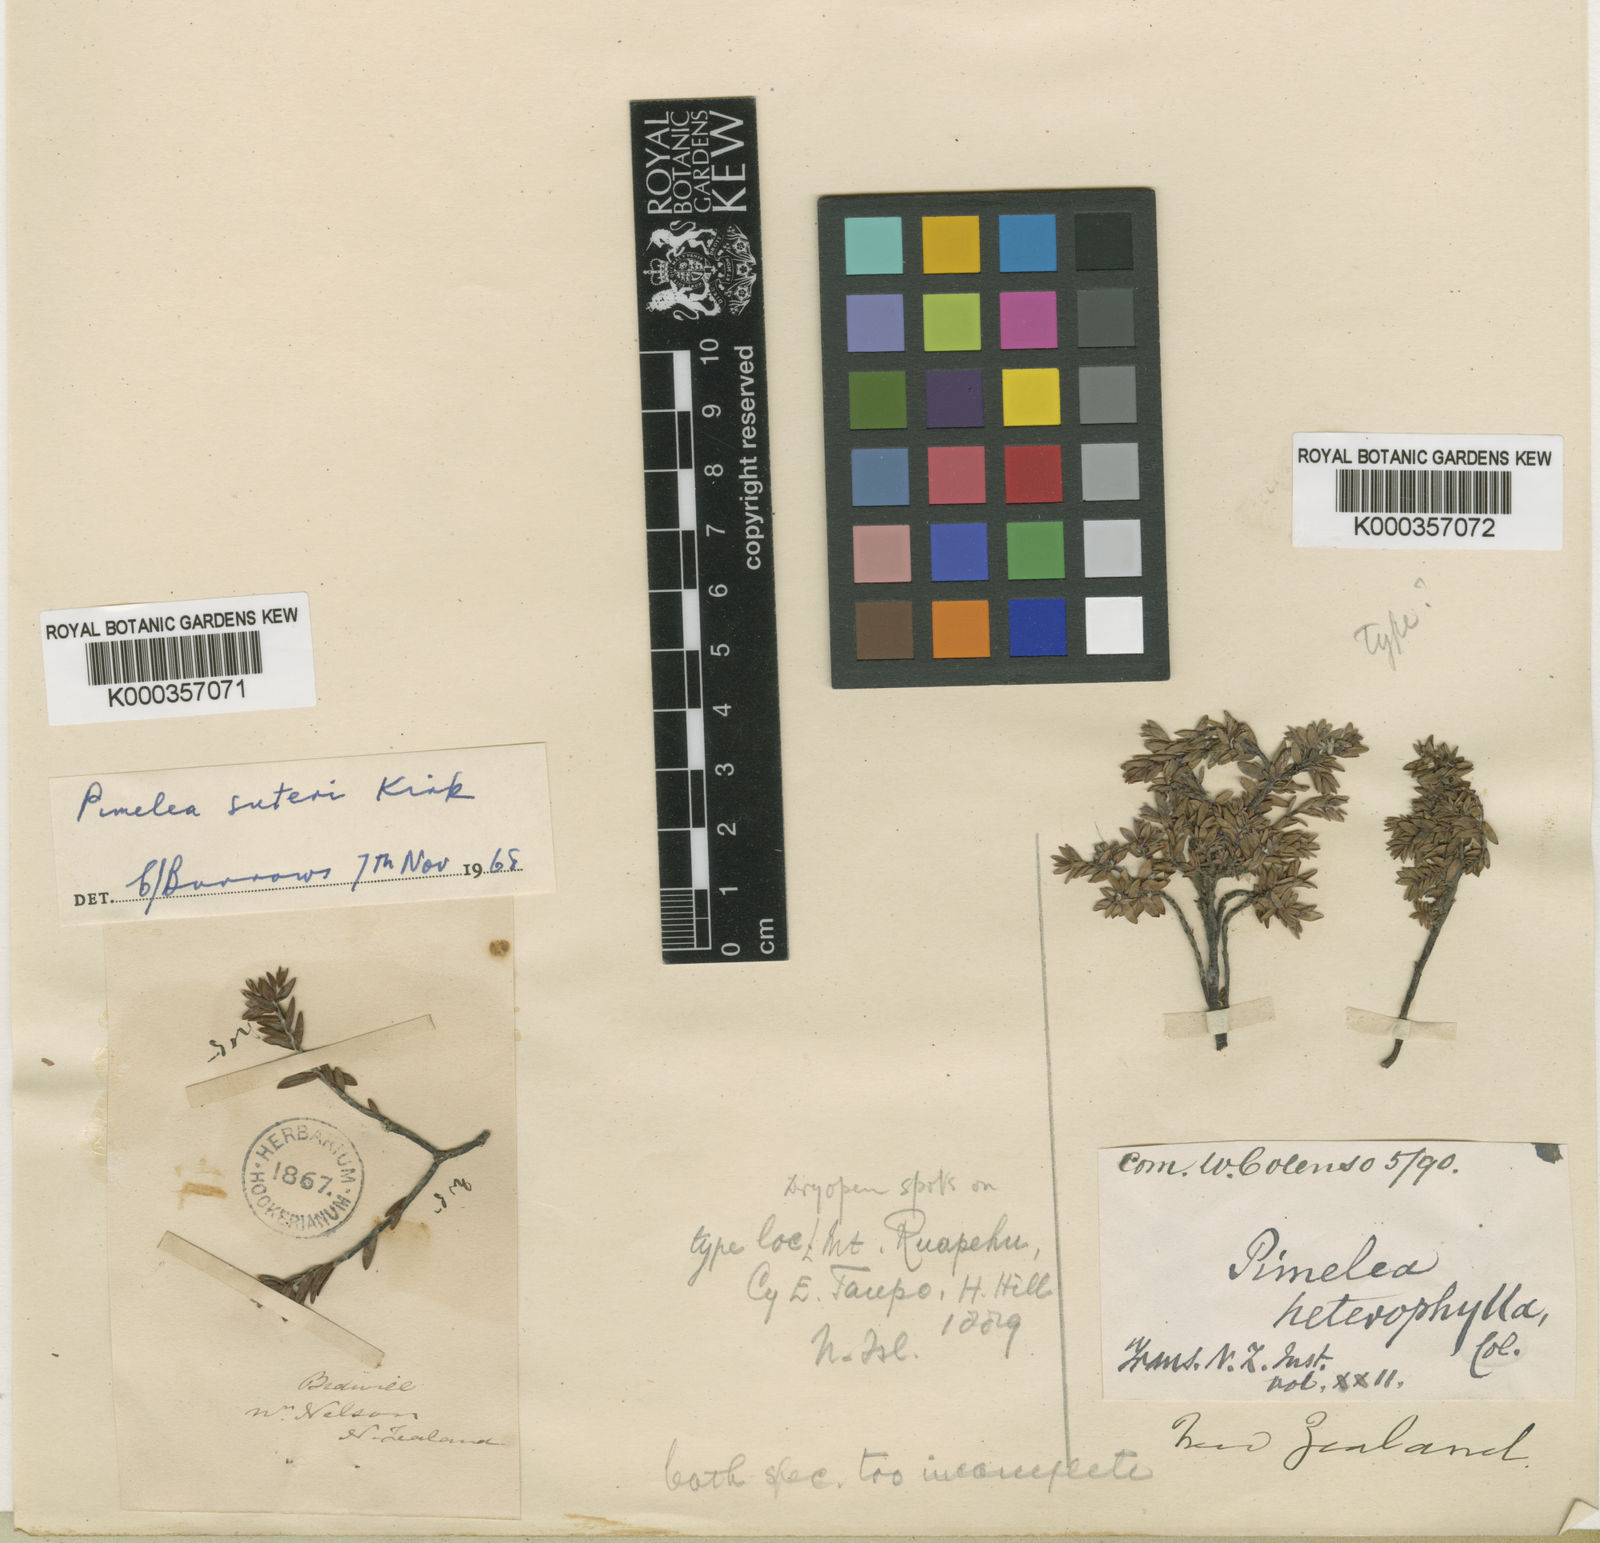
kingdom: Plantae
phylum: Tracheophyta
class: Magnoliopsida
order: Malvales
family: Thymelaeaceae
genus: Pimelea
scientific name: Pimelea prostrata
